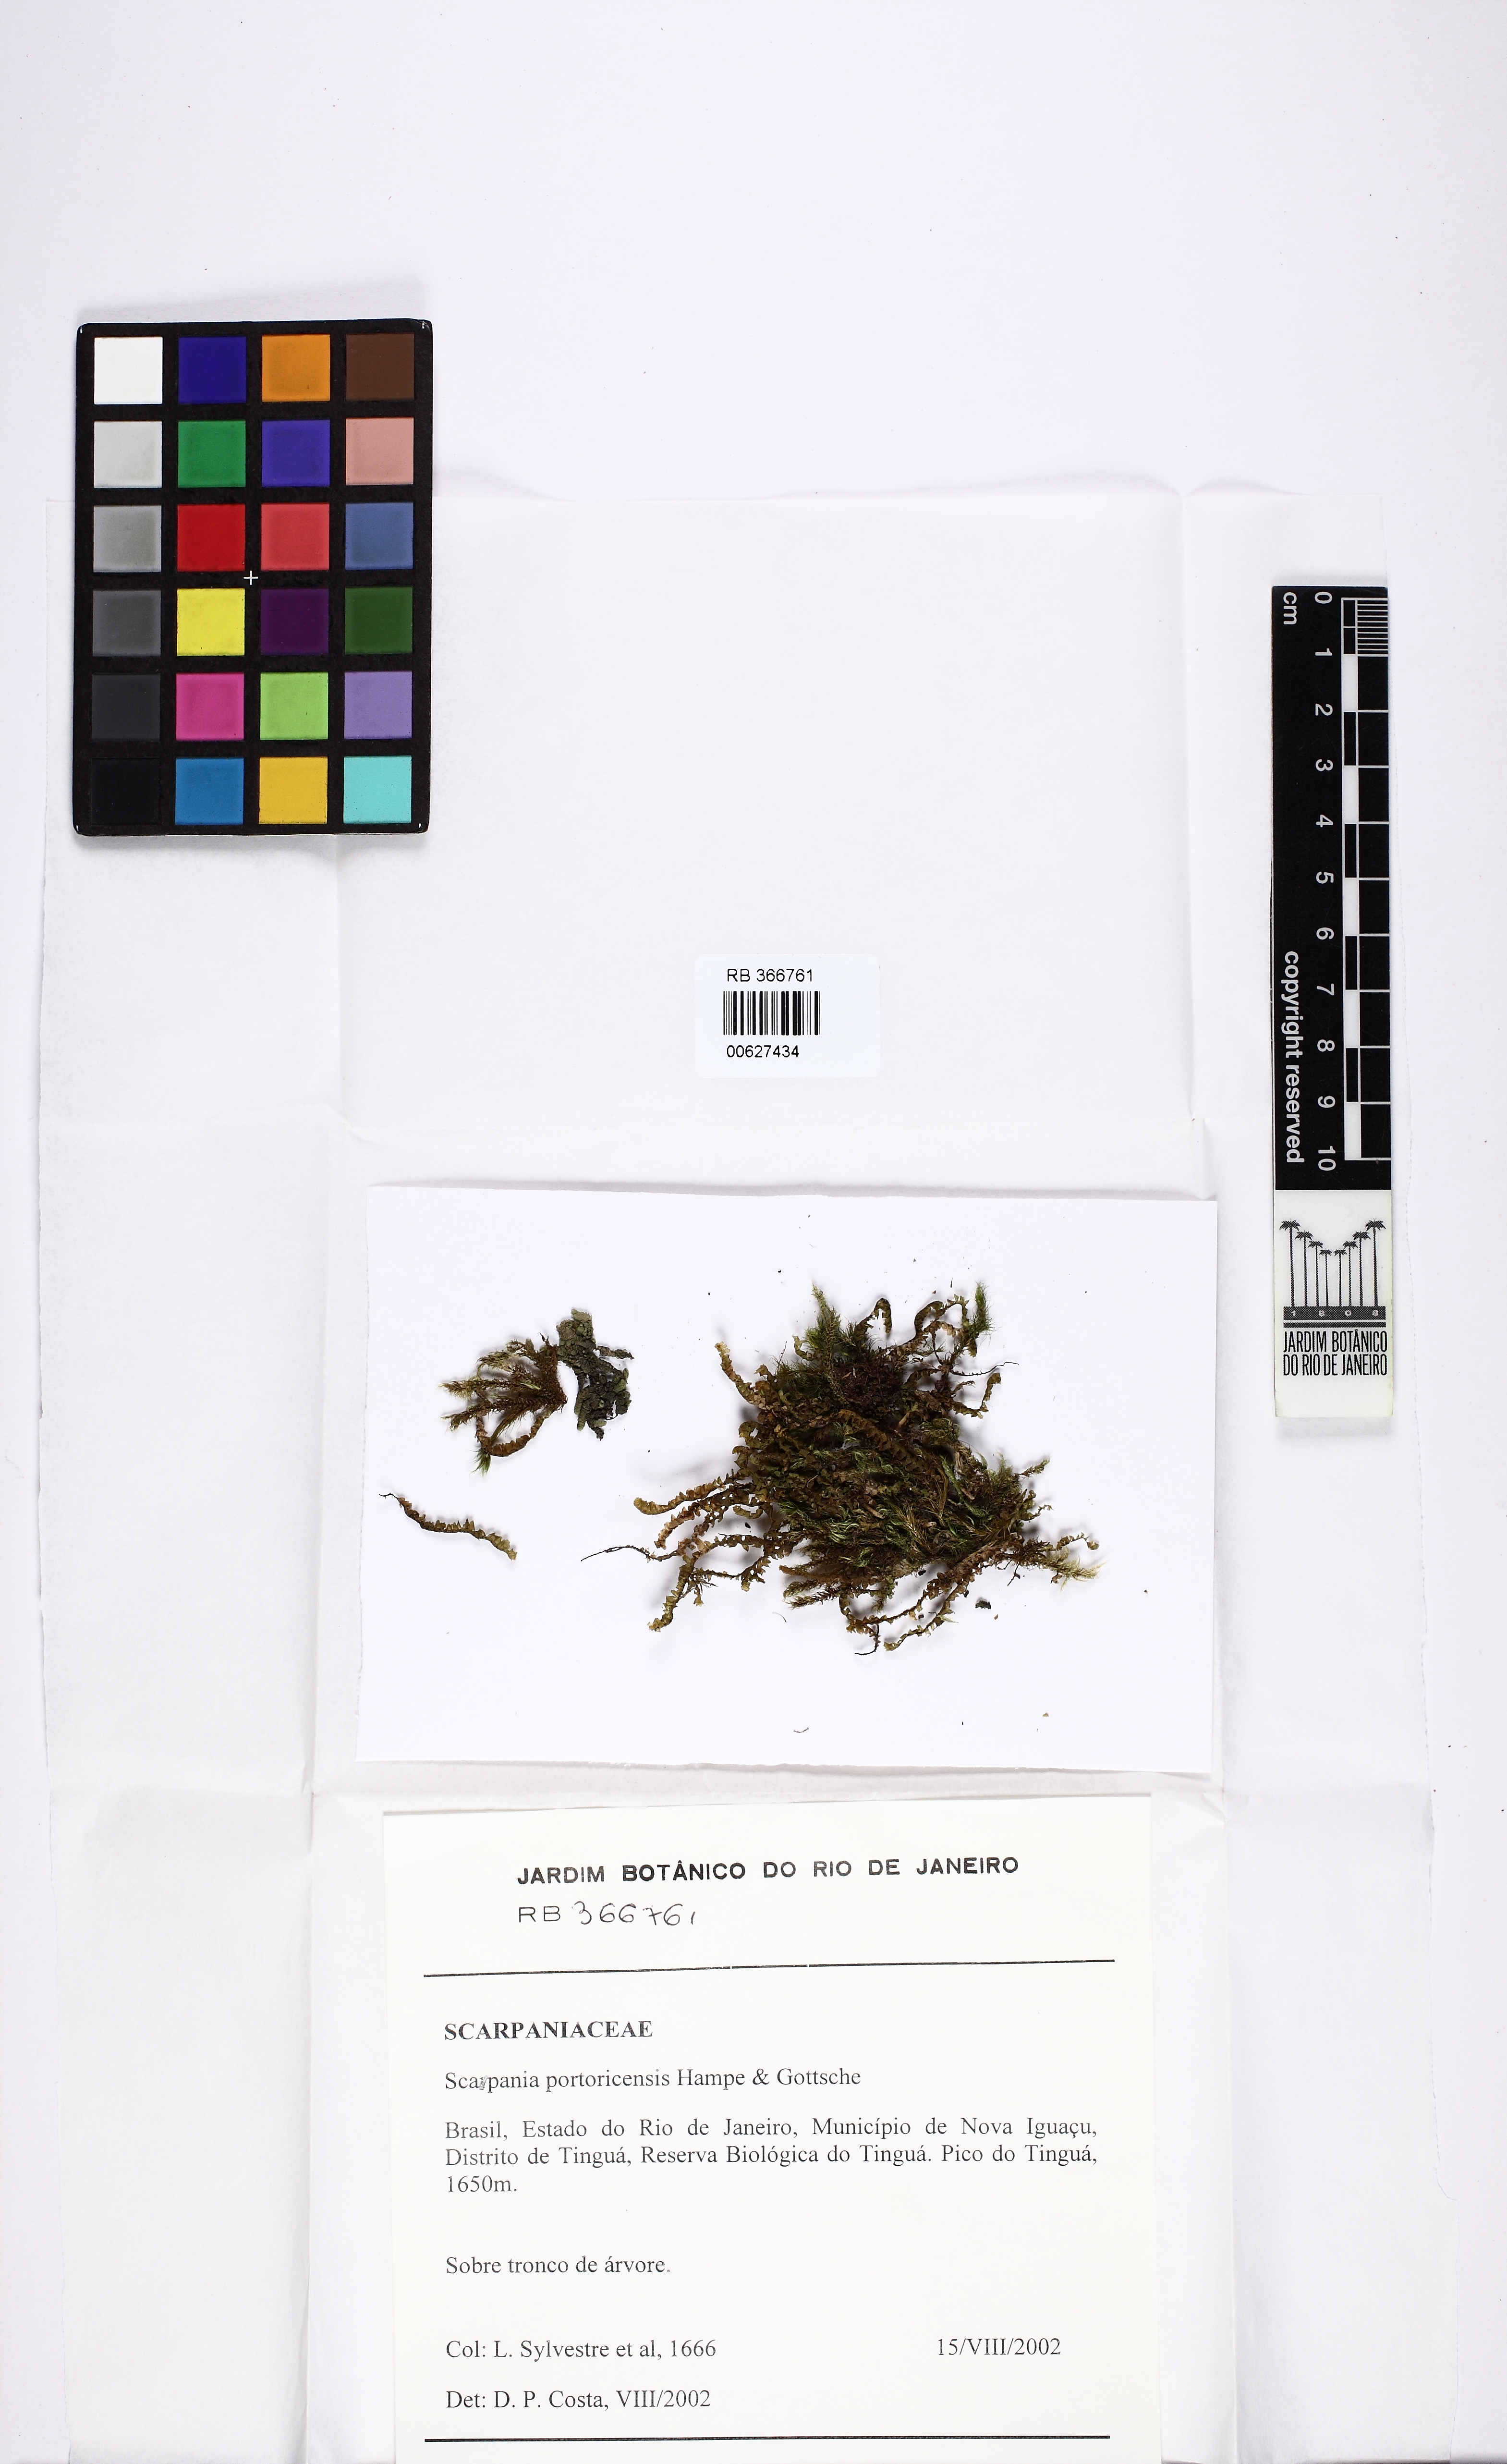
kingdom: Plantae
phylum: Marchantiophyta
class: Jungermanniopsida
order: Jungermanniales
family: Scapaniaceae
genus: Scapania
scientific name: Scapania portoricensis
